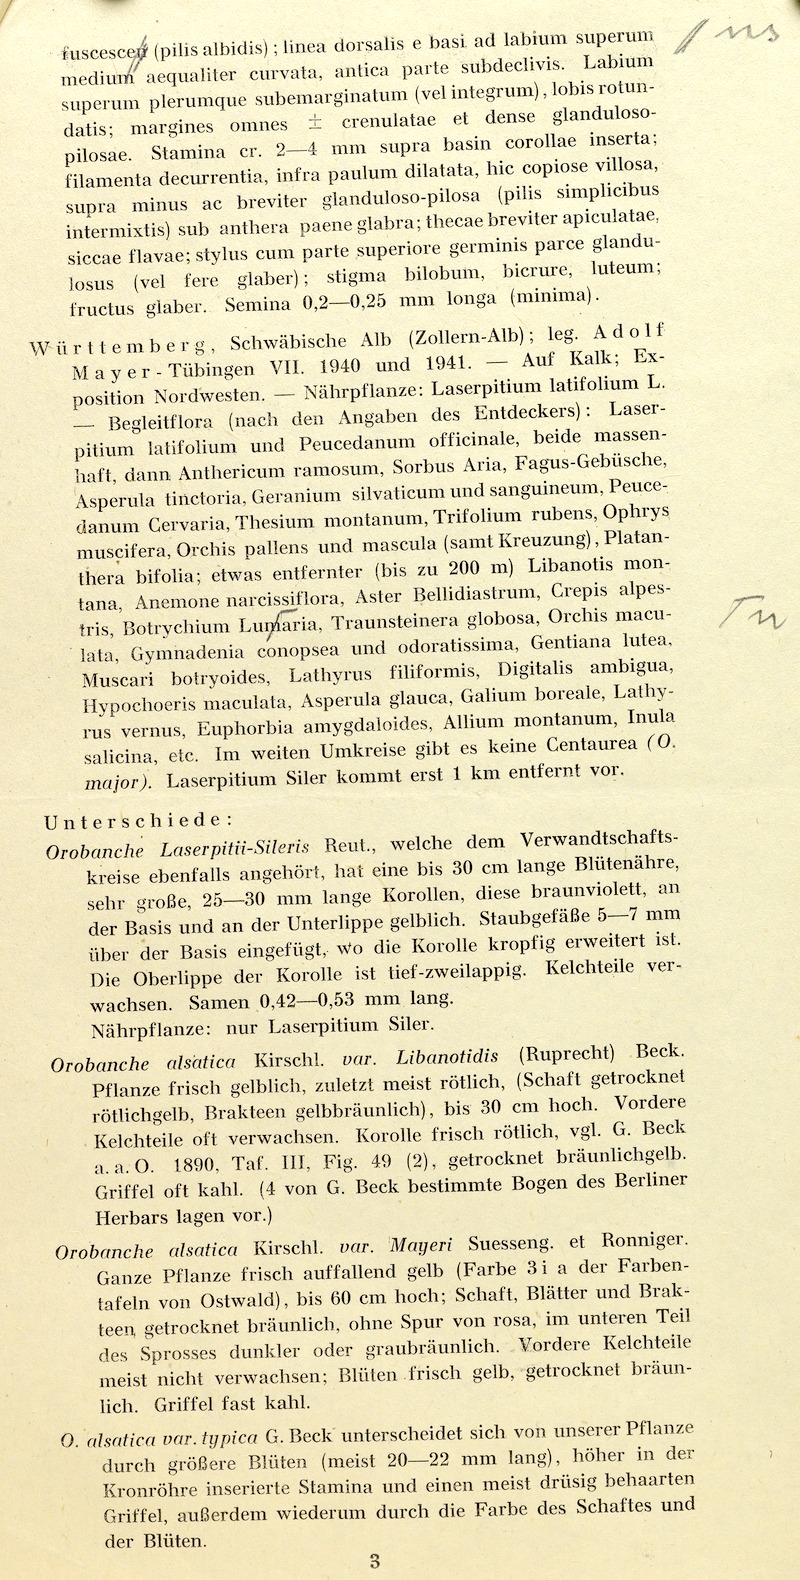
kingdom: Plantae
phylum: Tracheophyta
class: Magnoliopsida
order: Lamiales
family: Orobanchaceae
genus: Orobanche
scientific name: Orobanche mayeri
